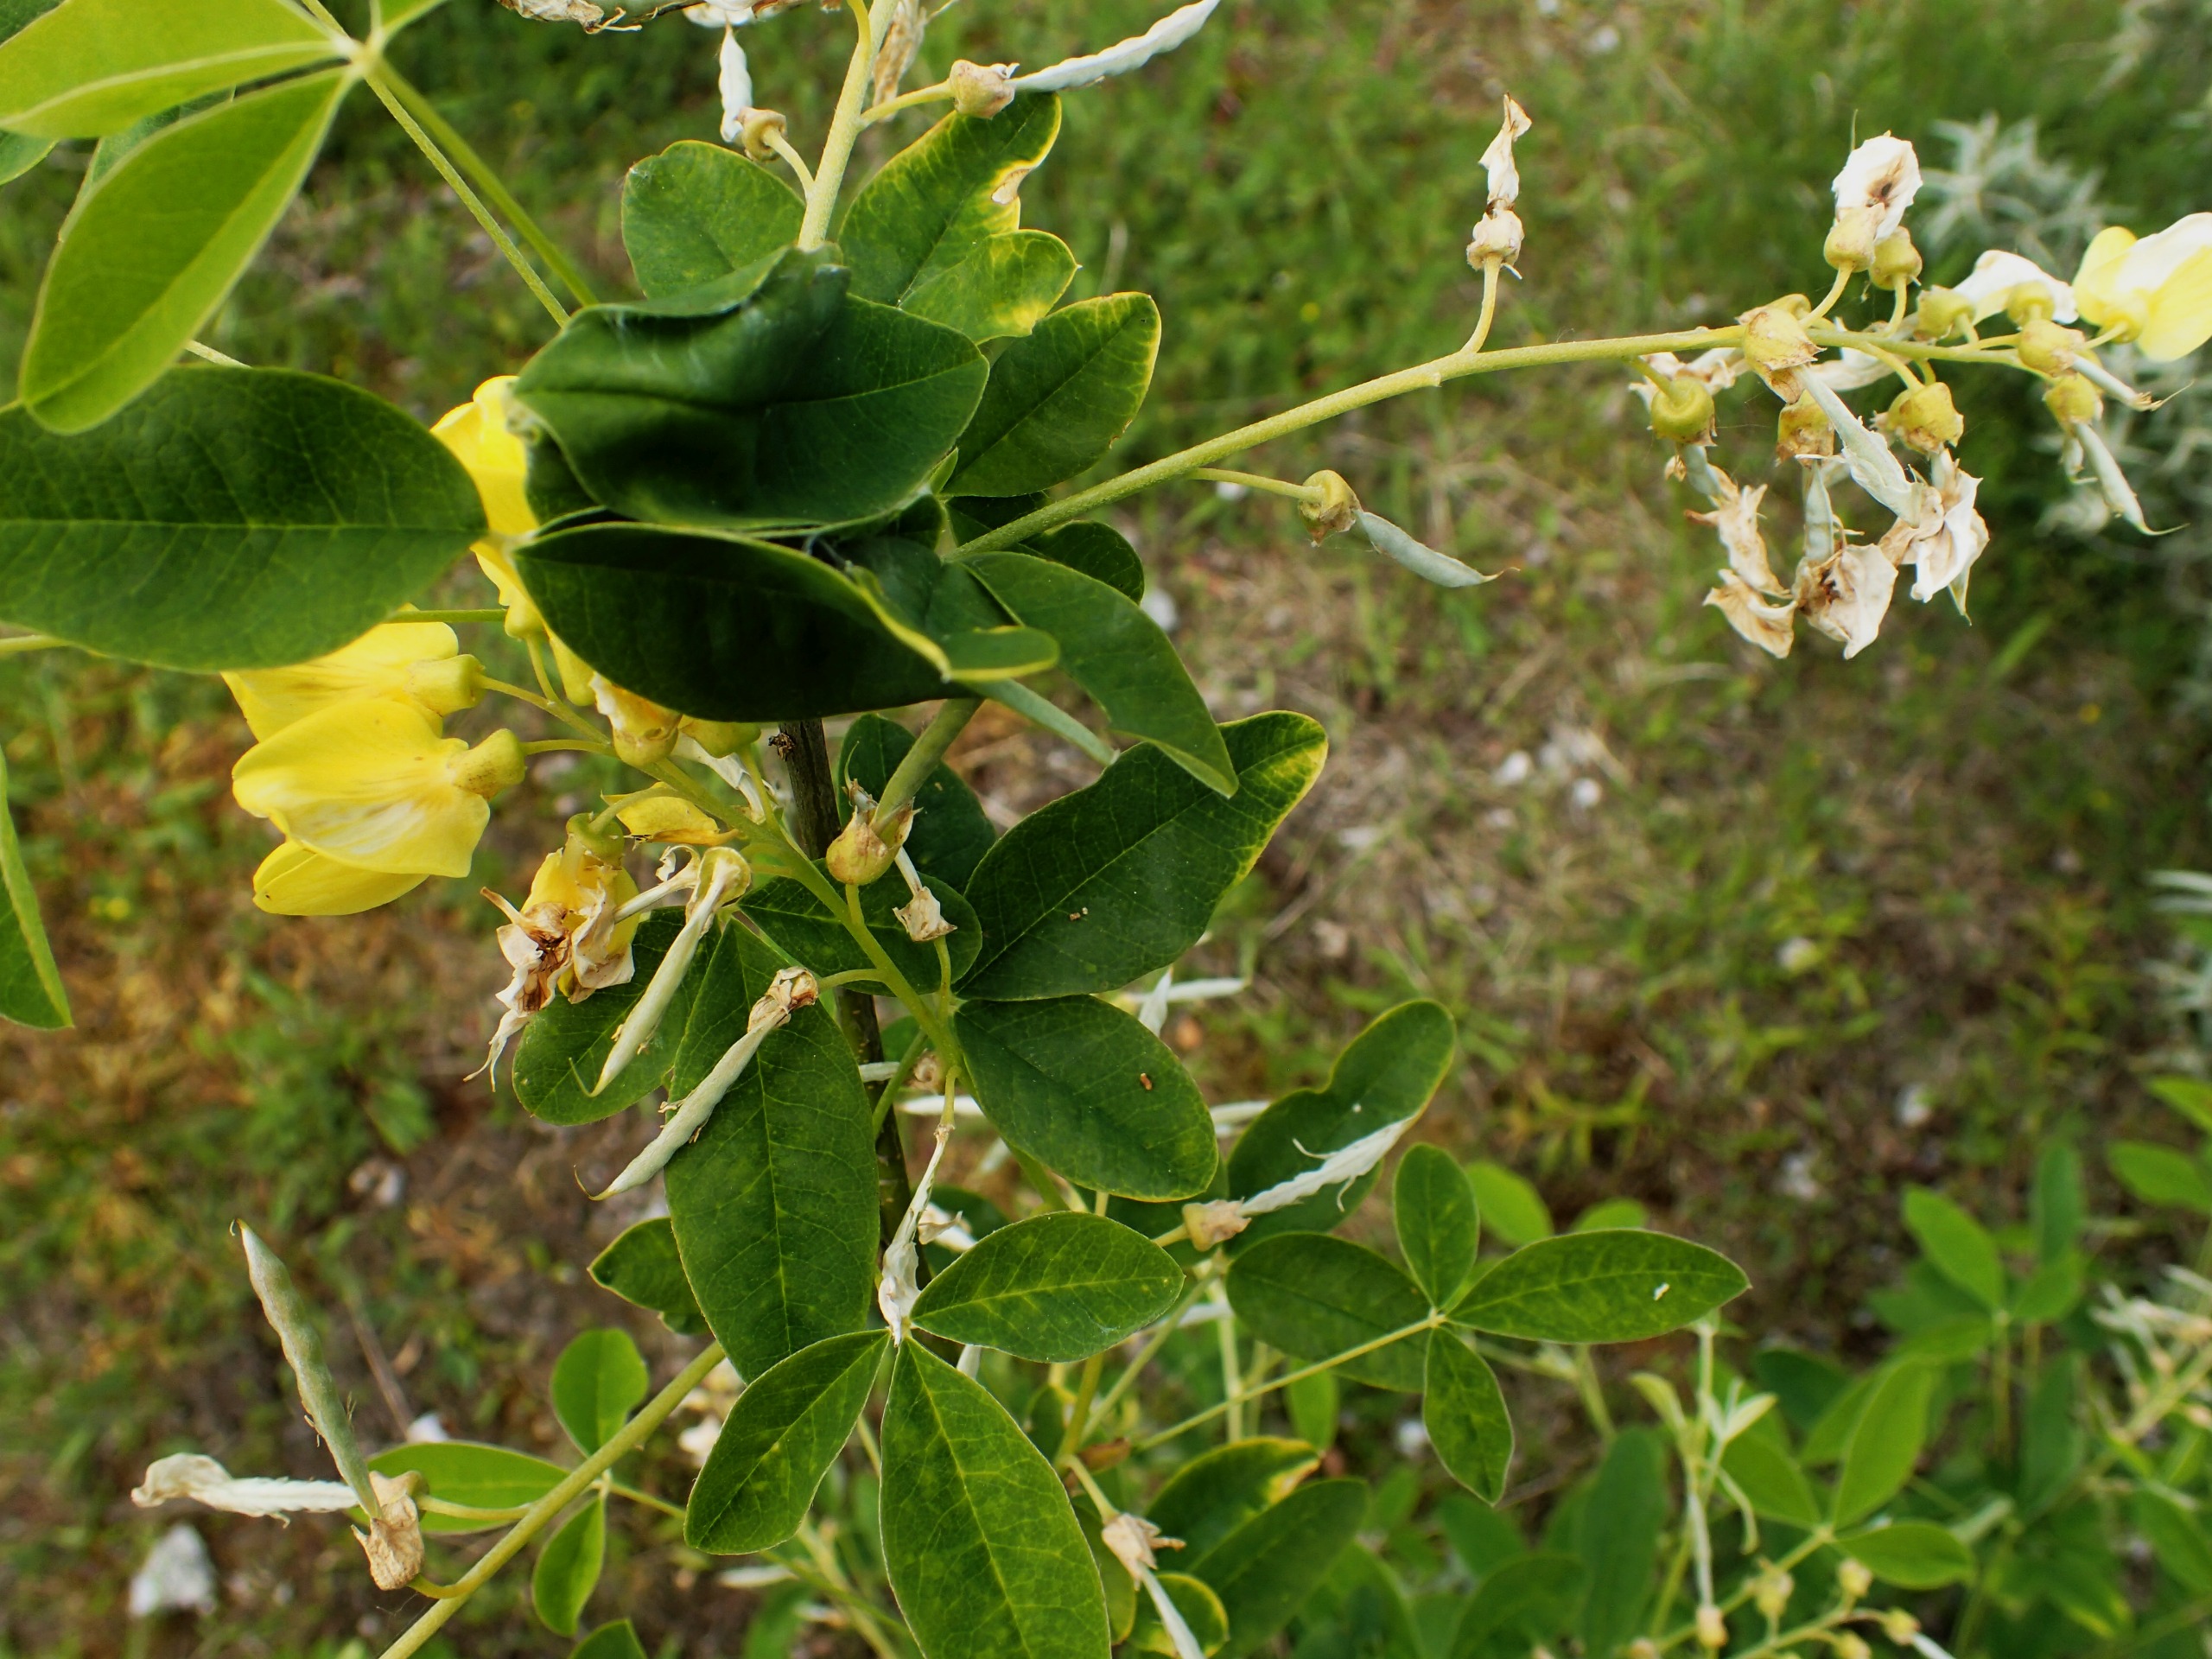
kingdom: Plantae
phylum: Tracheophyta
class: Magnoliopsida
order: Fabales
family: Fabaceae
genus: Laburnum
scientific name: Laburnum alpinum
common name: Alpe-guldregn
